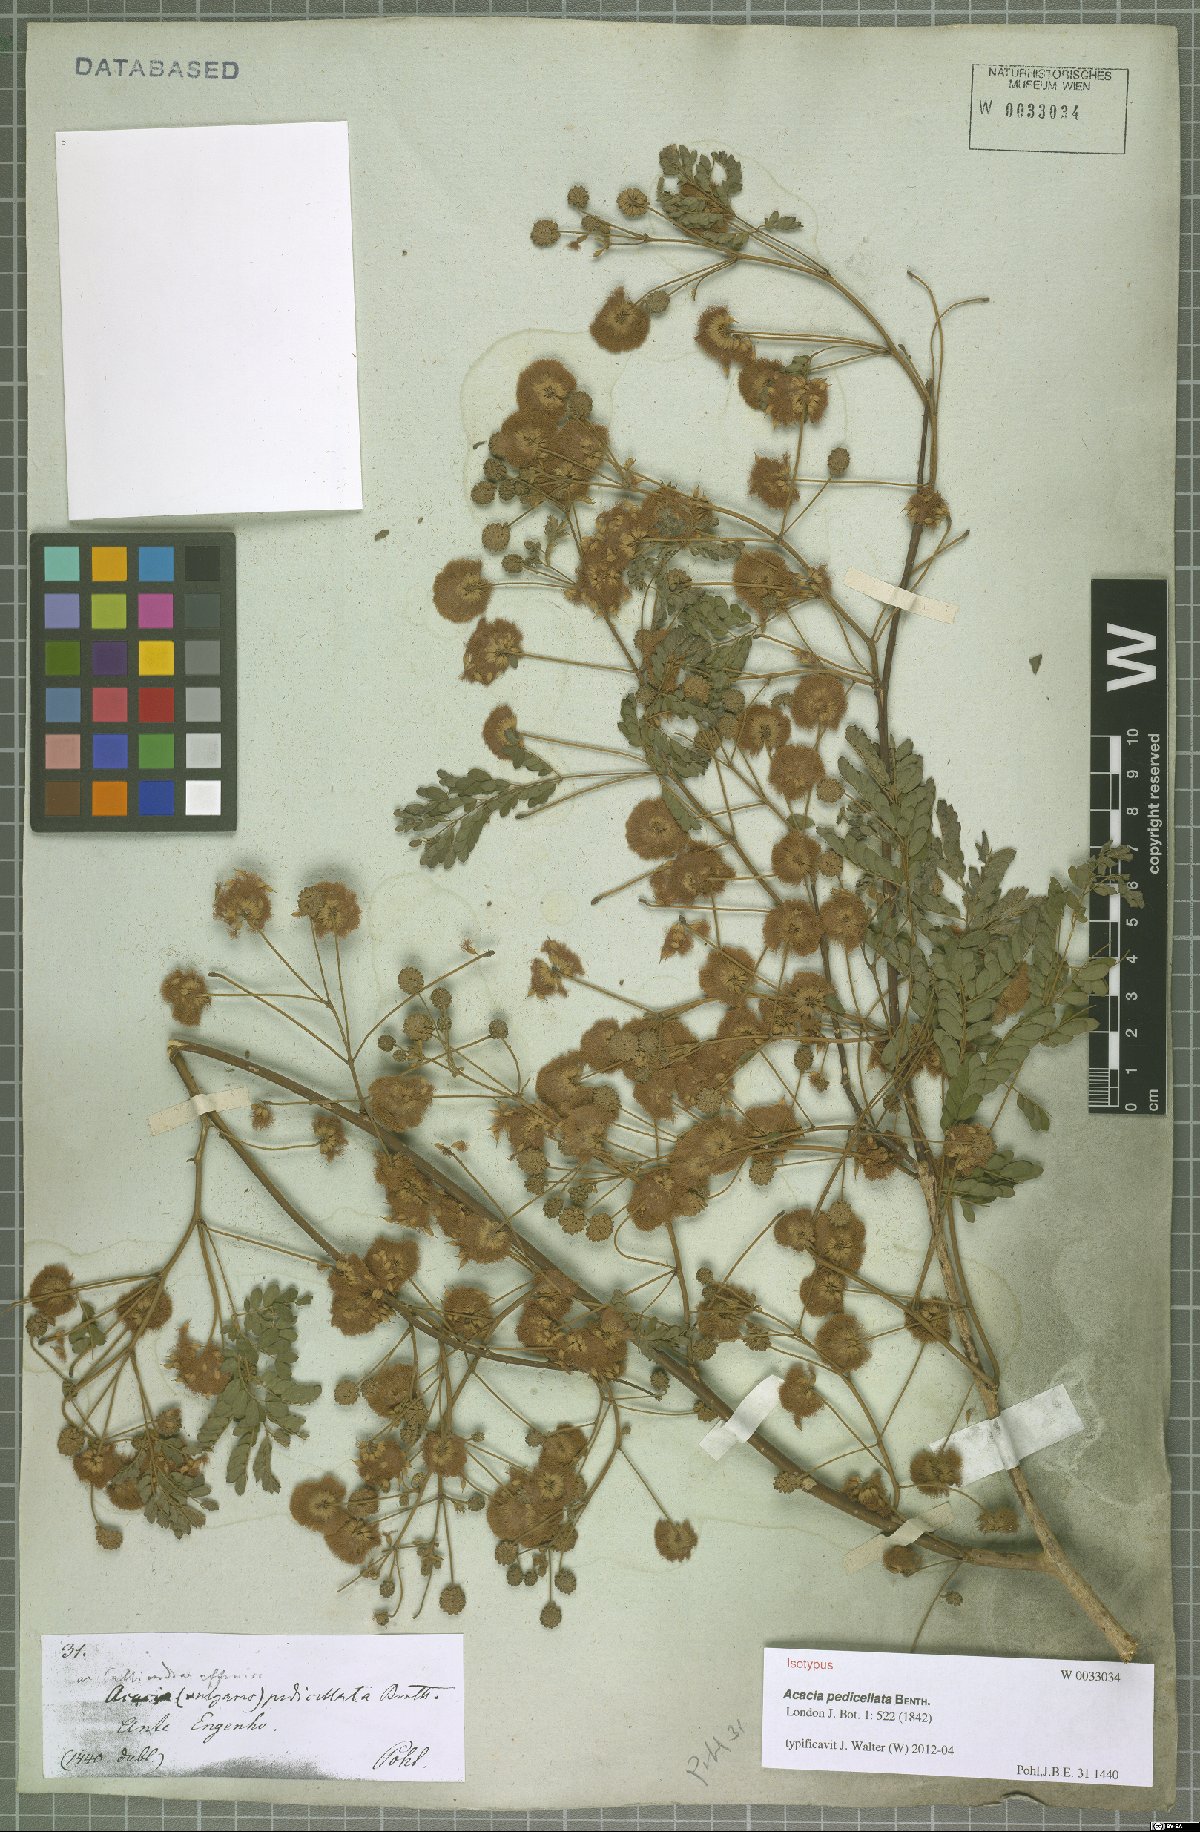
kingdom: Plantae
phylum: Tracheophyta
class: Magnoliopsida
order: Fabales
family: Fabaceae
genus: Senegalia
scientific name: Senegalia pedicellata
